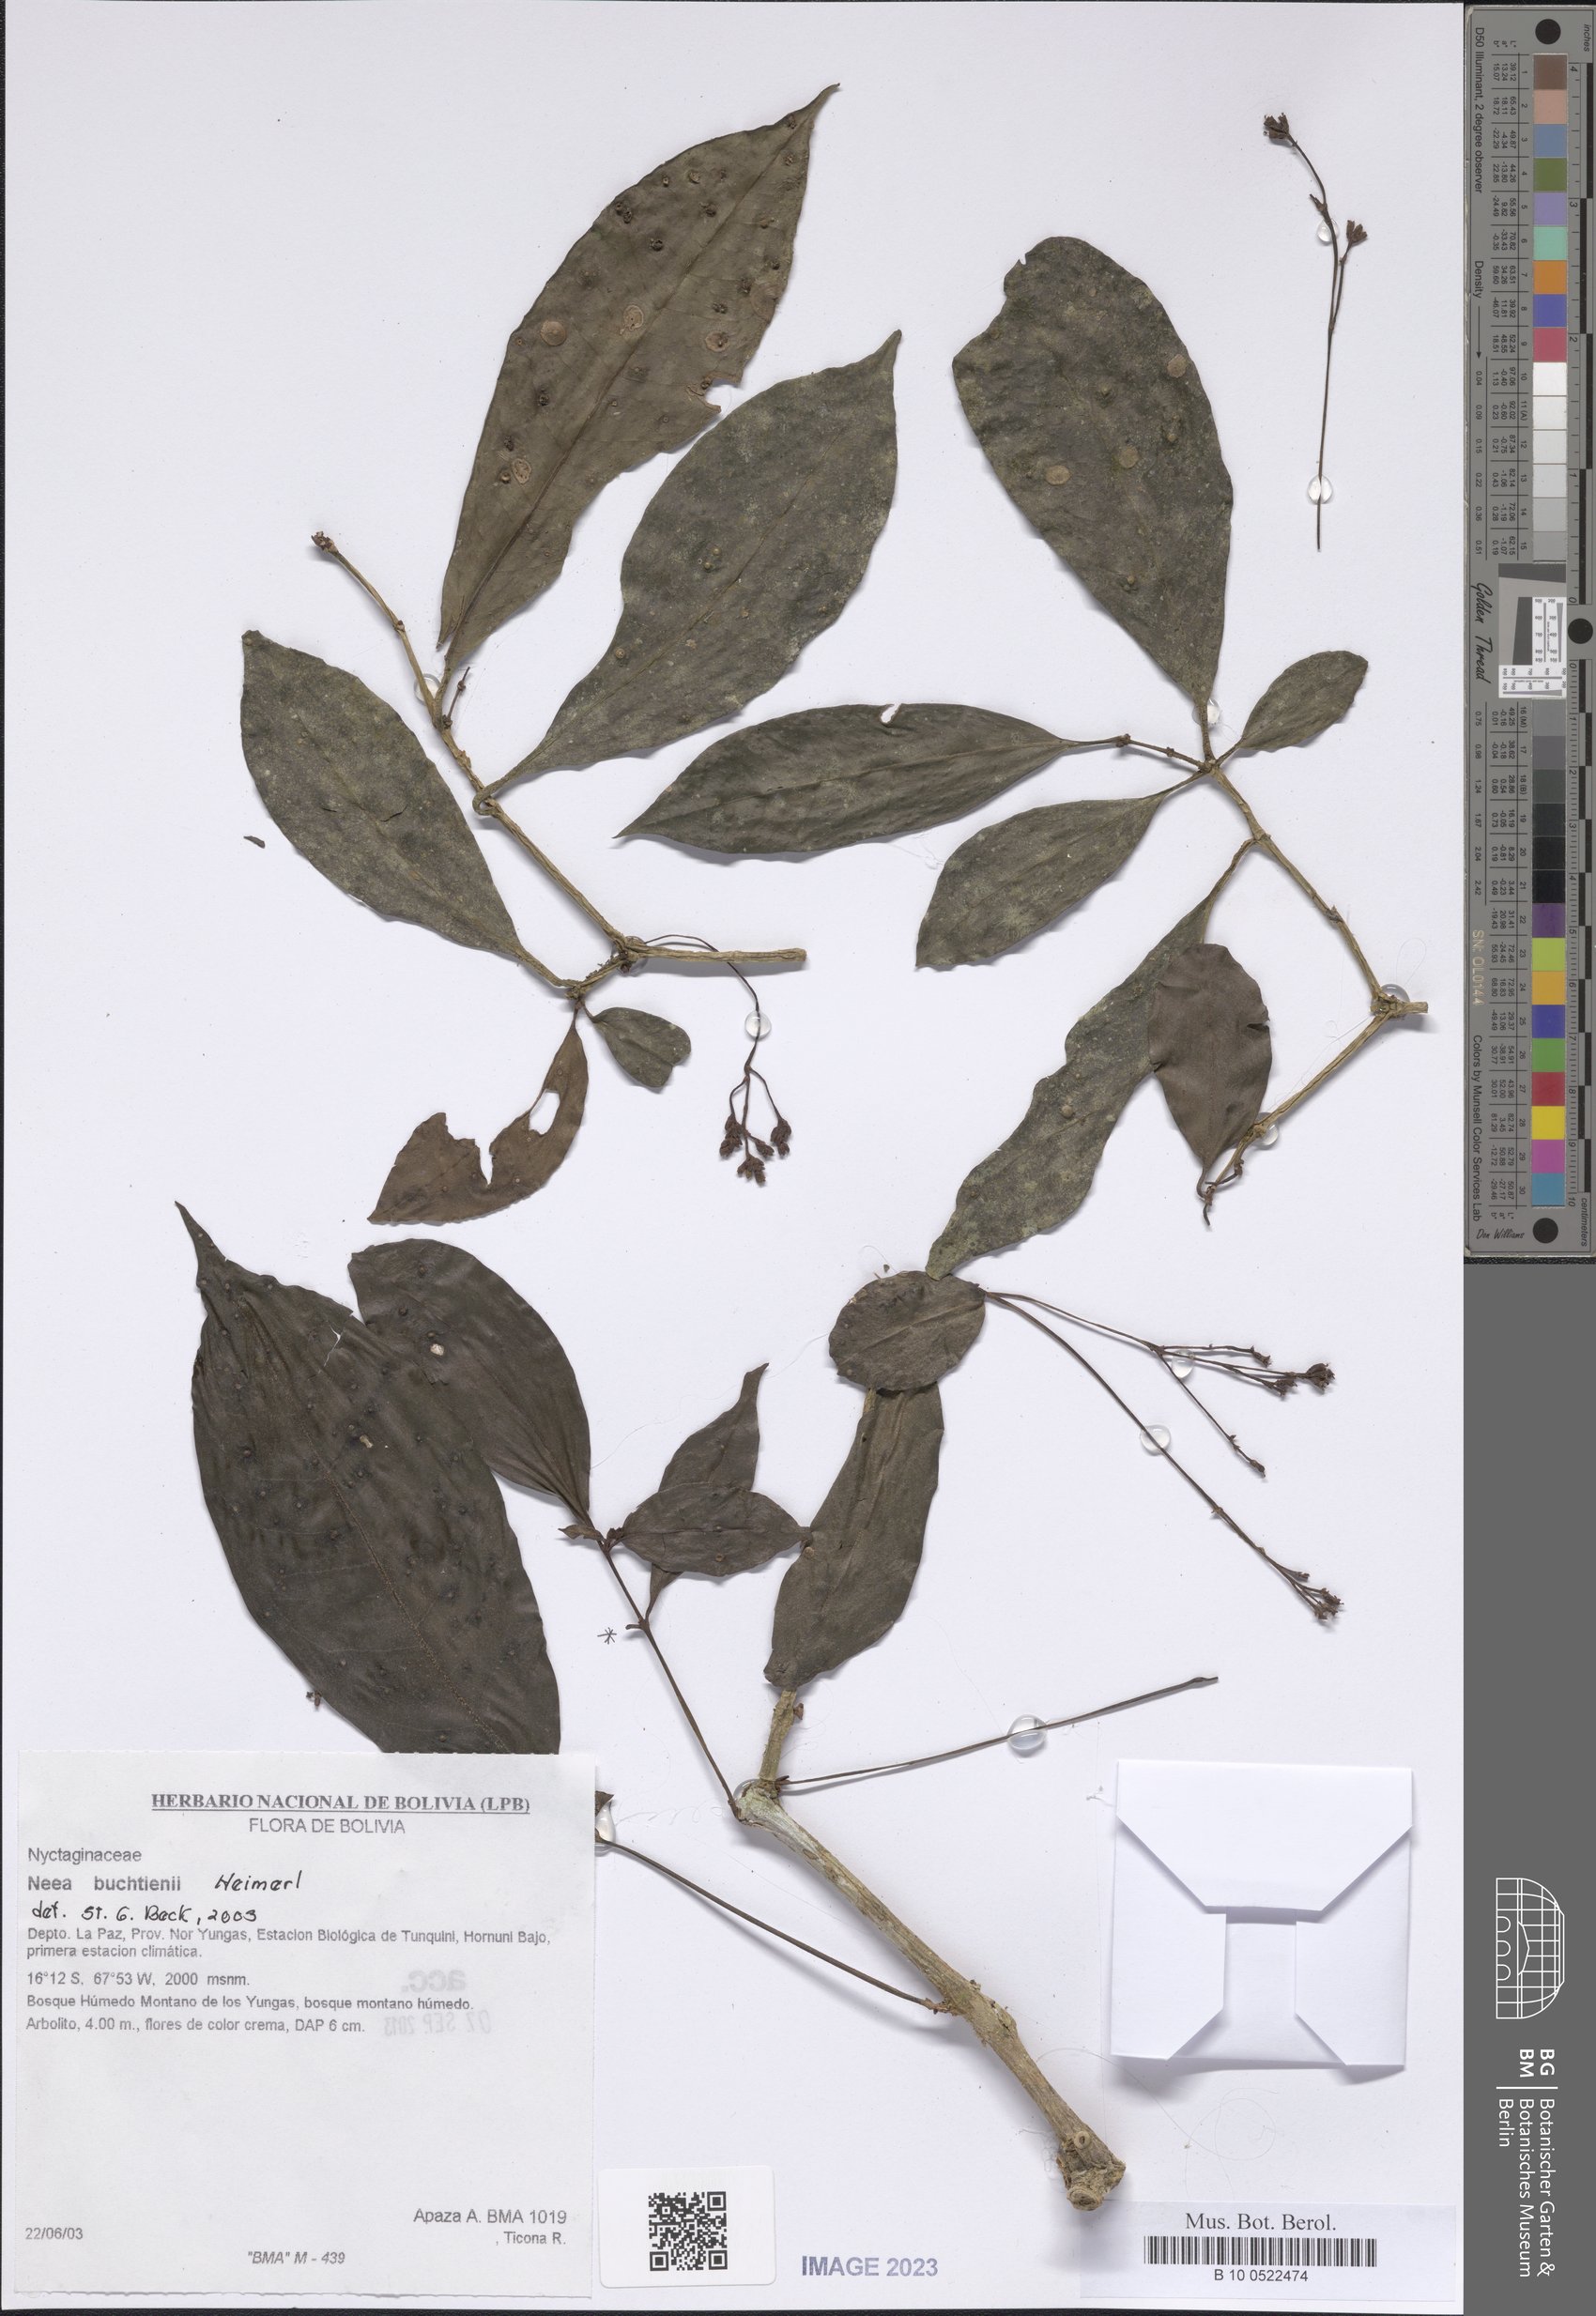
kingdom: Plantae
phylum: Tracheophyta
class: Magnoliopsida
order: Caryophyllales
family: Nyctaginaceae
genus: Neea
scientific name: Neea
